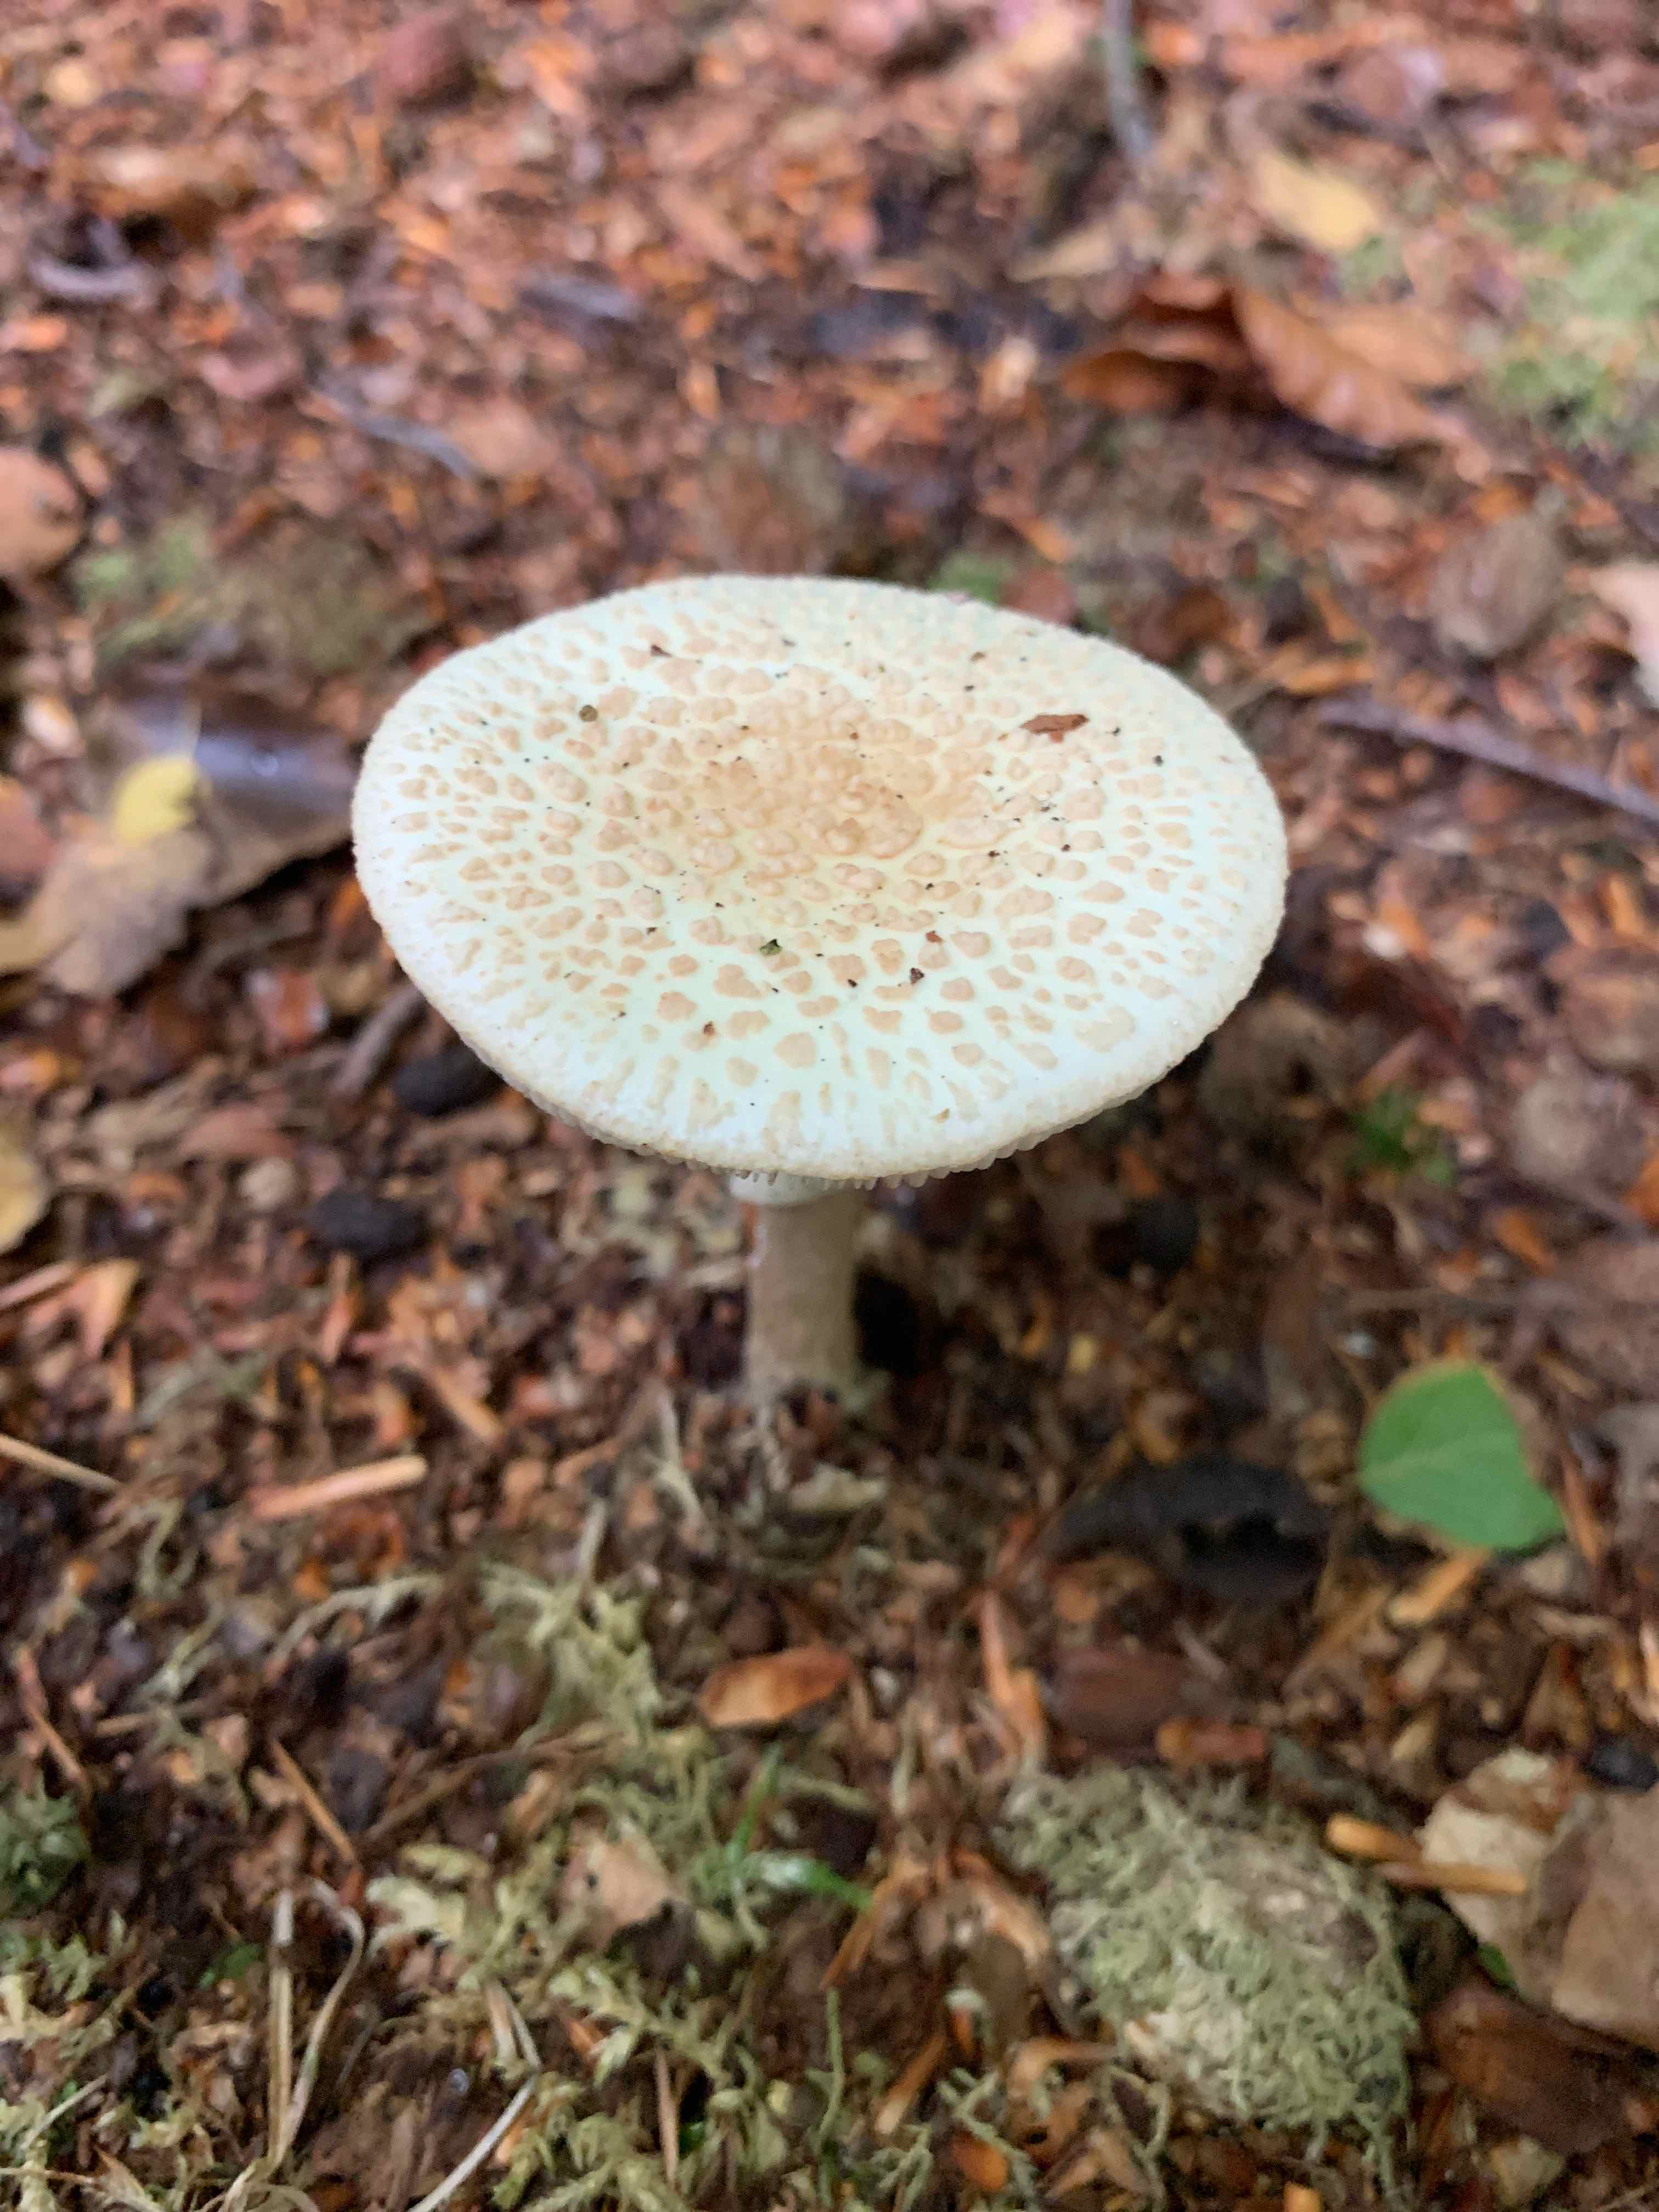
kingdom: Fungi
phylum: Basidiomycota
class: Agaricomycetes
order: Agaricales
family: Amanitaceae
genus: Amanita
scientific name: Amanita citrina
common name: False death-cap
